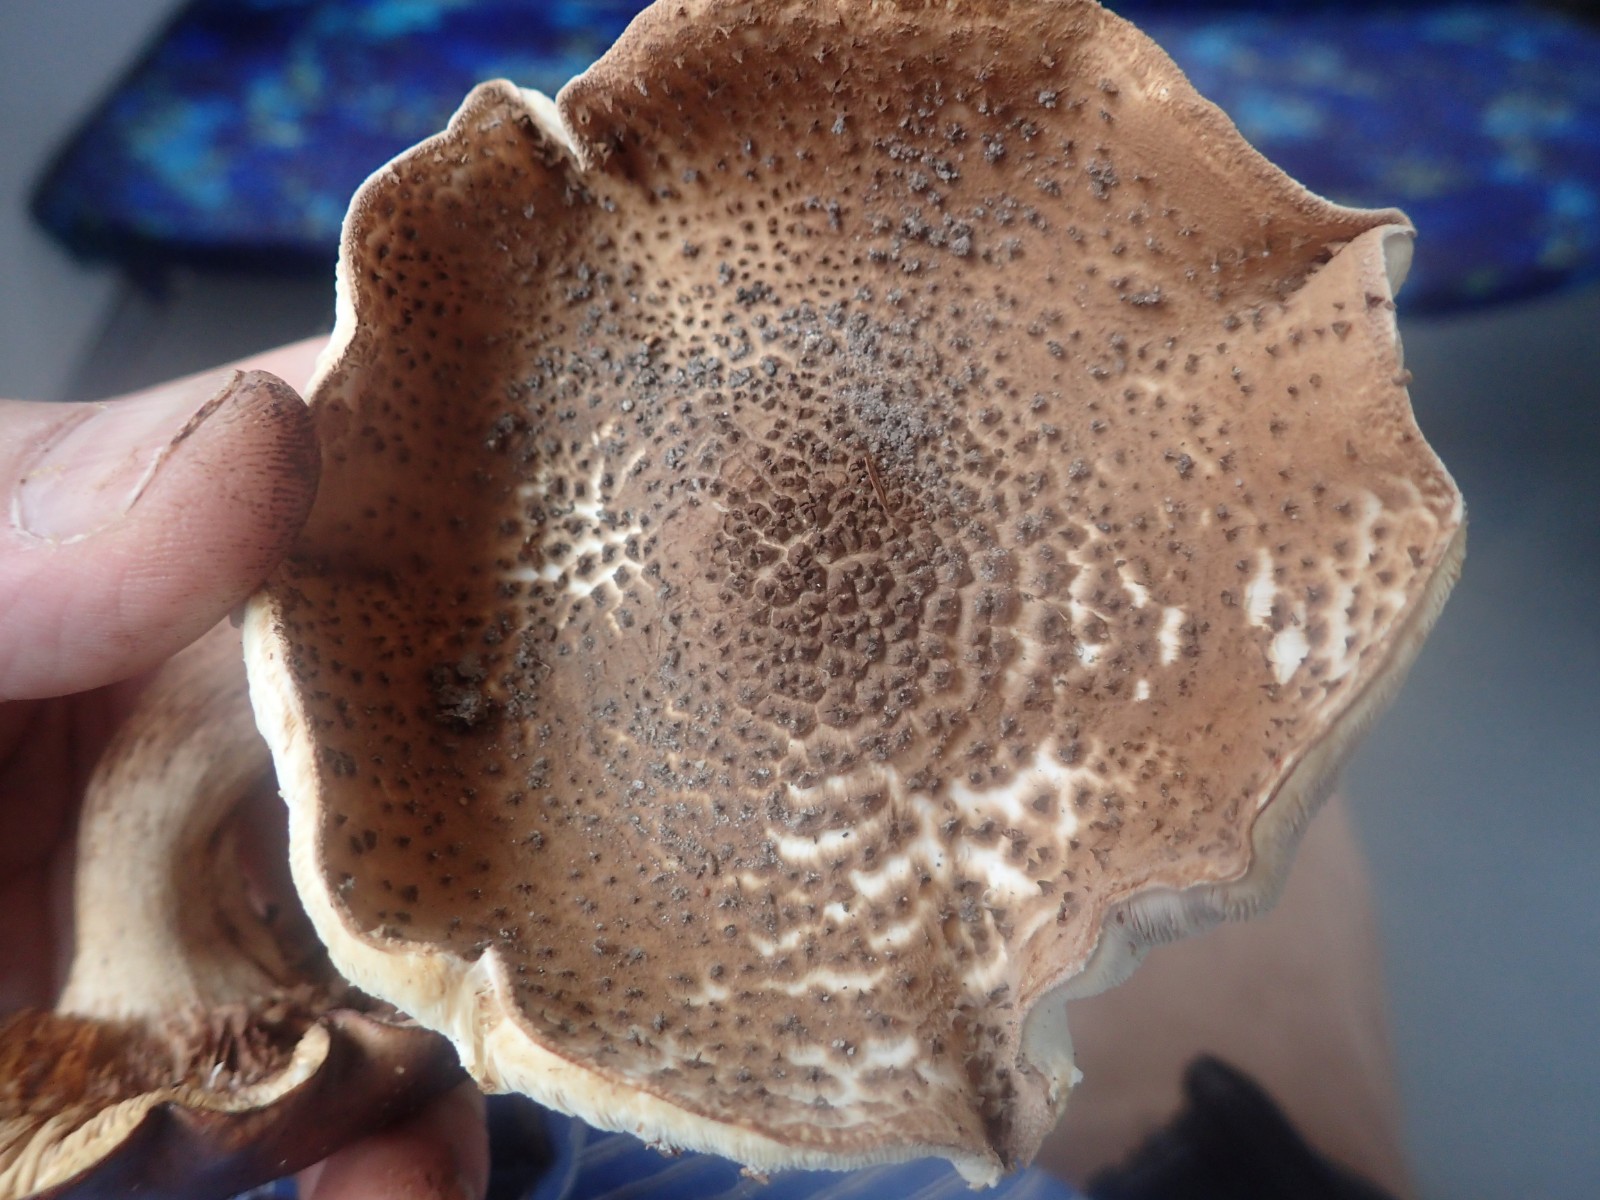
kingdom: Fungi
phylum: Basidiomycota
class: Agaricomycetes
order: Agaricales
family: Agaricaceae
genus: Echinoderma
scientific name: Echinoderma asperum
